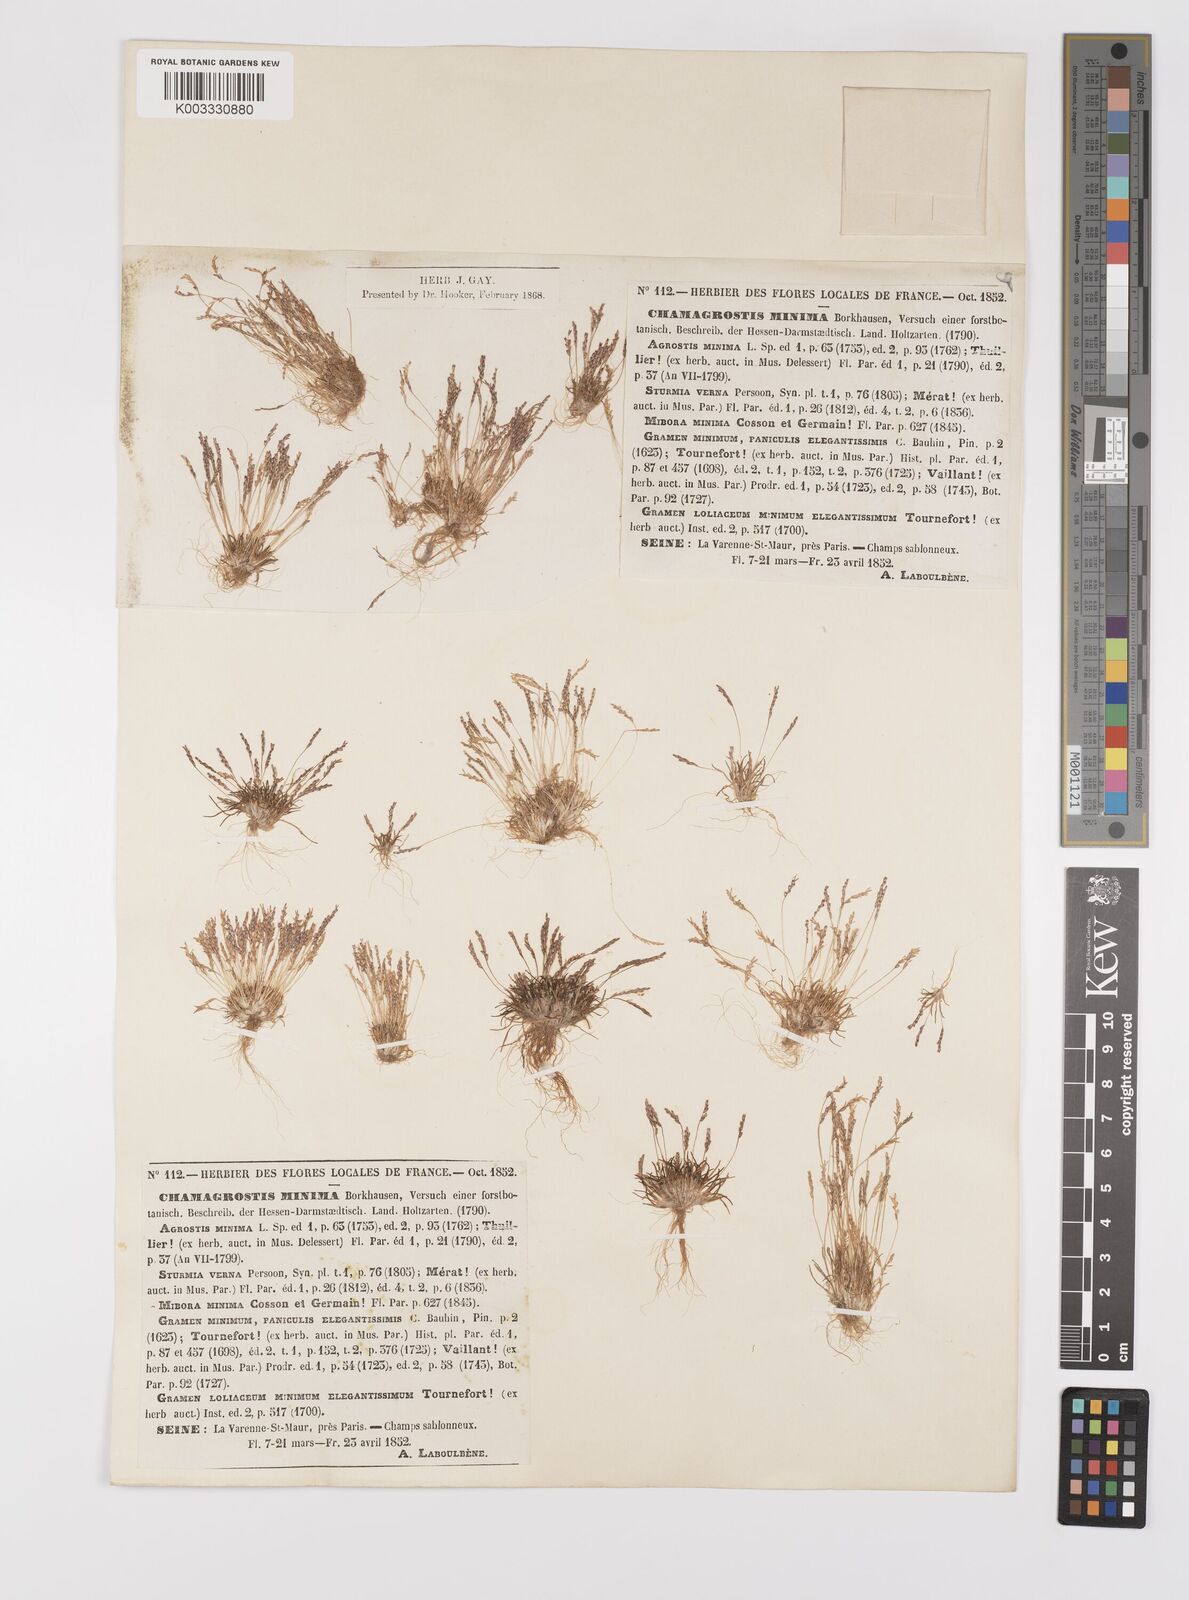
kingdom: Plantae
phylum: Tracheophyta
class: Liliopsida
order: Poales
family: Poaceae
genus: Mibora
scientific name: Mibora minima
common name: Early sand-grass
